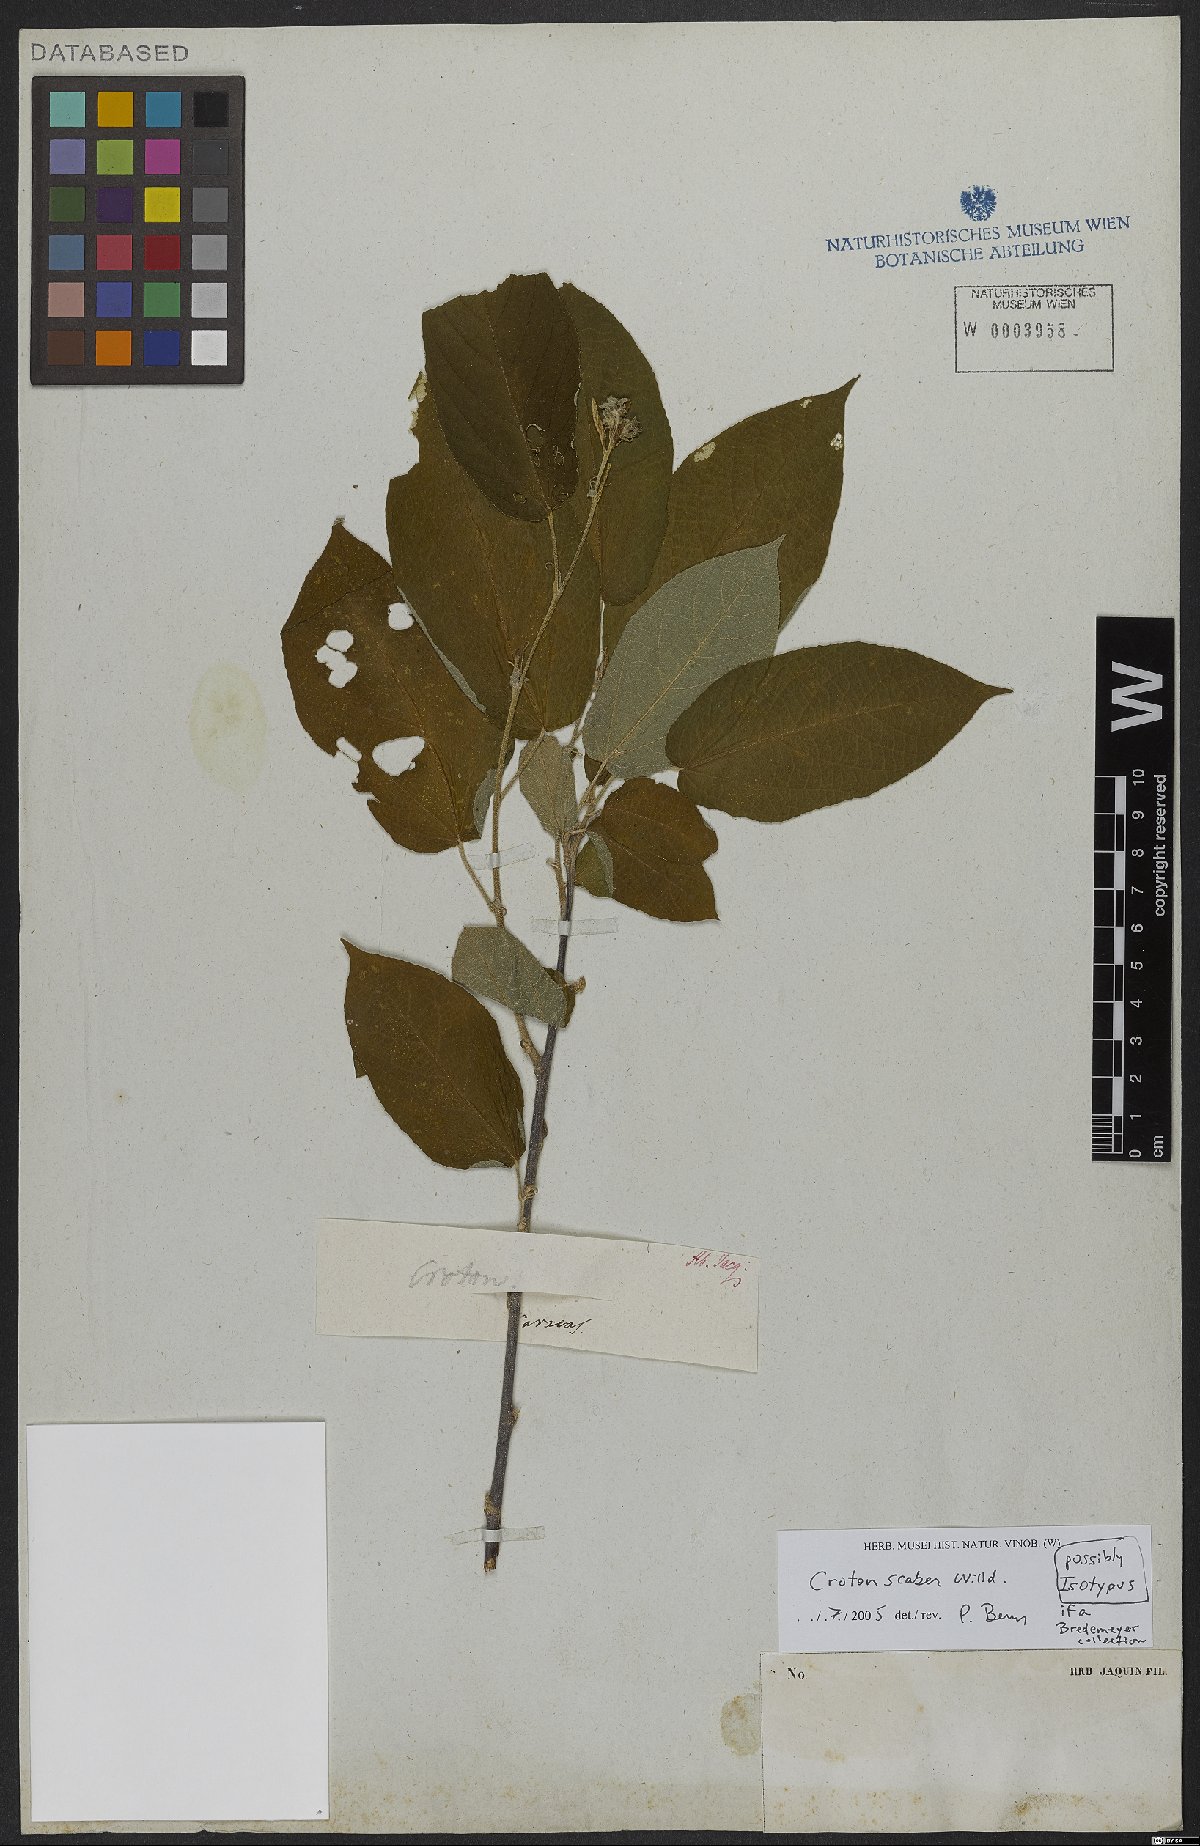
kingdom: Plantae
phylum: Tracheophyta
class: Magnoliopsida
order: Malpighiales
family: Euphorbiaceae
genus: Croton
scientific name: Croton scaber
